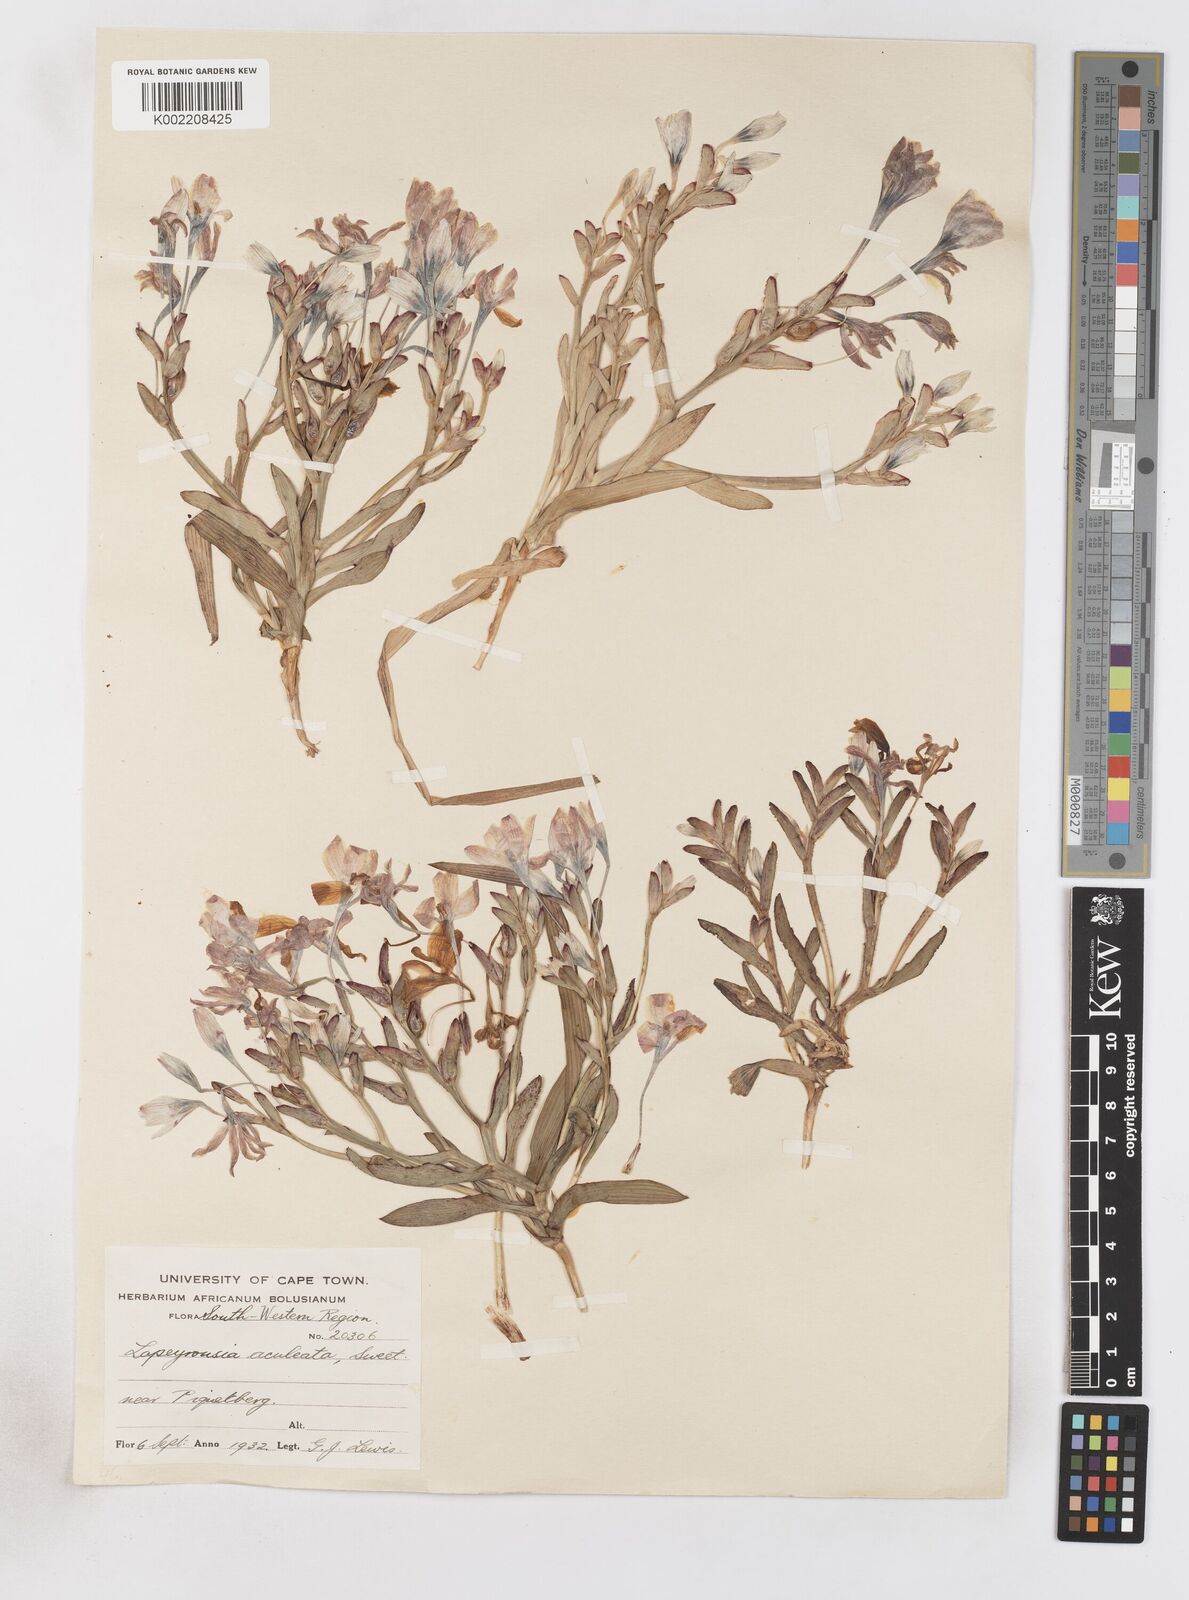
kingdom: Plantae
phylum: Tracheophyta
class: Liliopsida
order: Asparagales
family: Iridaceae
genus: Lapeirousia
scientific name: Lapeirousia fabricii
